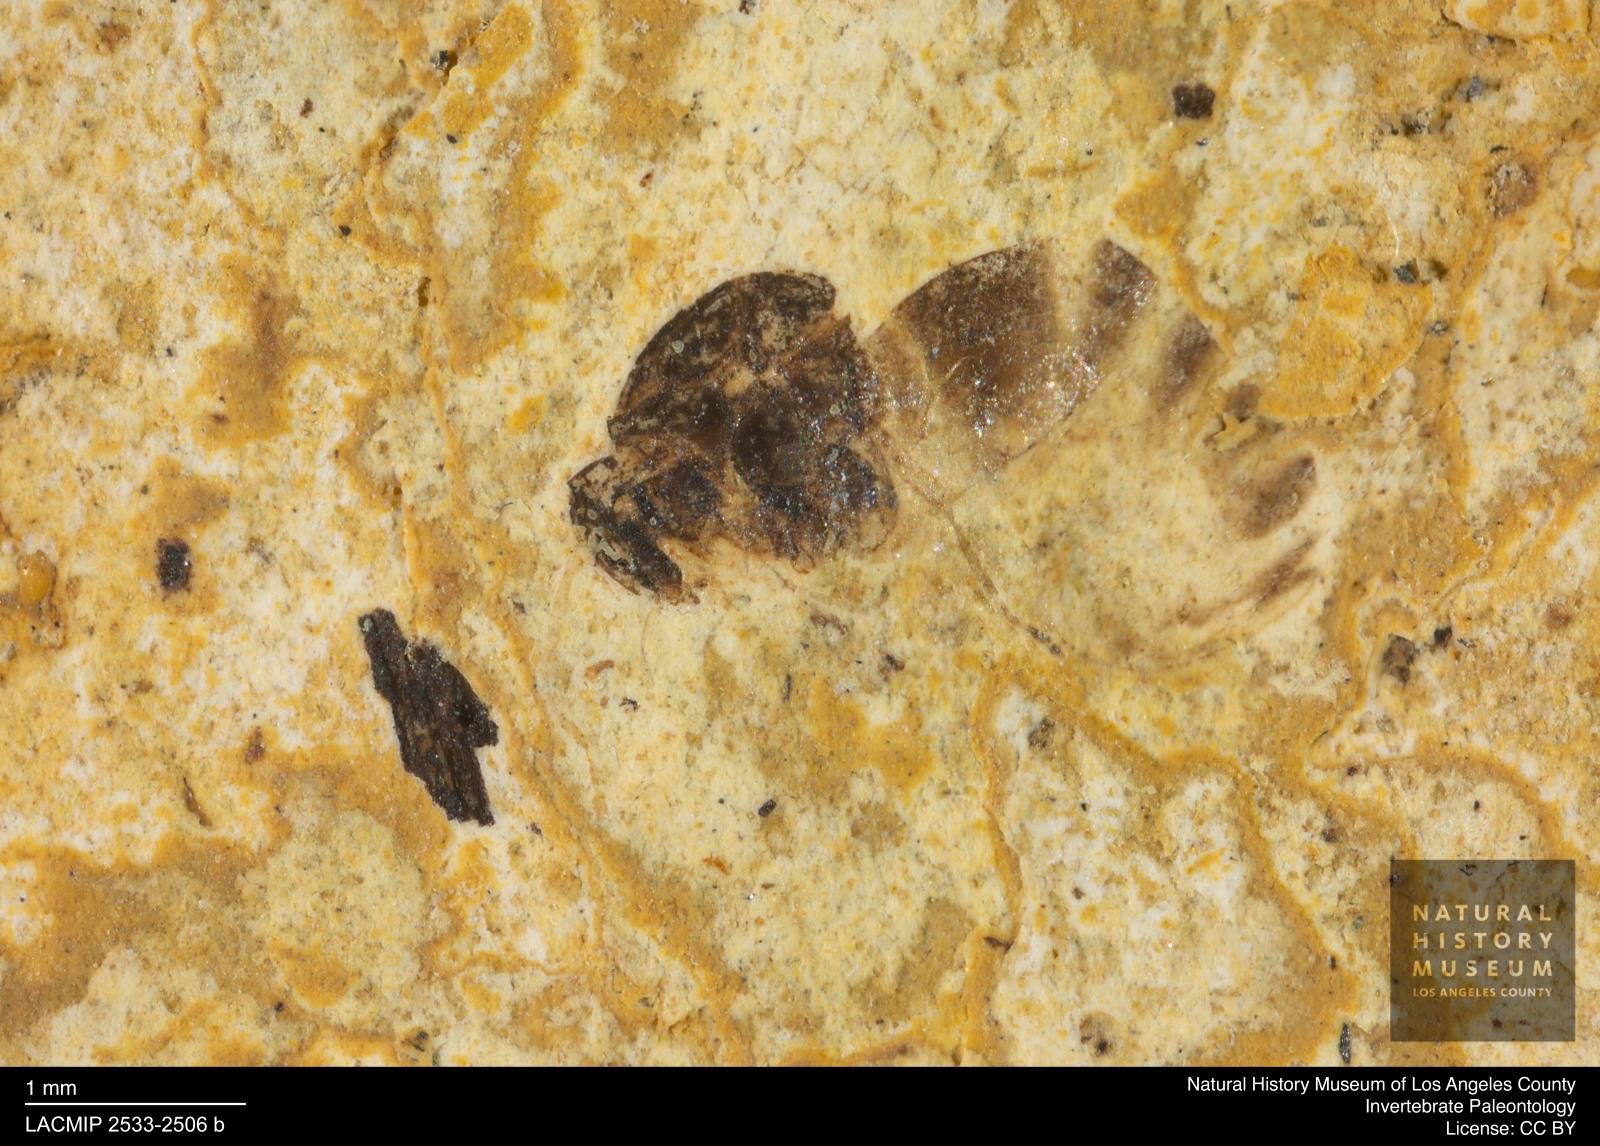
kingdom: Animalia
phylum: Arthropoda
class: Insecta
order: Hymenoptera
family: Formicidae
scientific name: Formicidae
